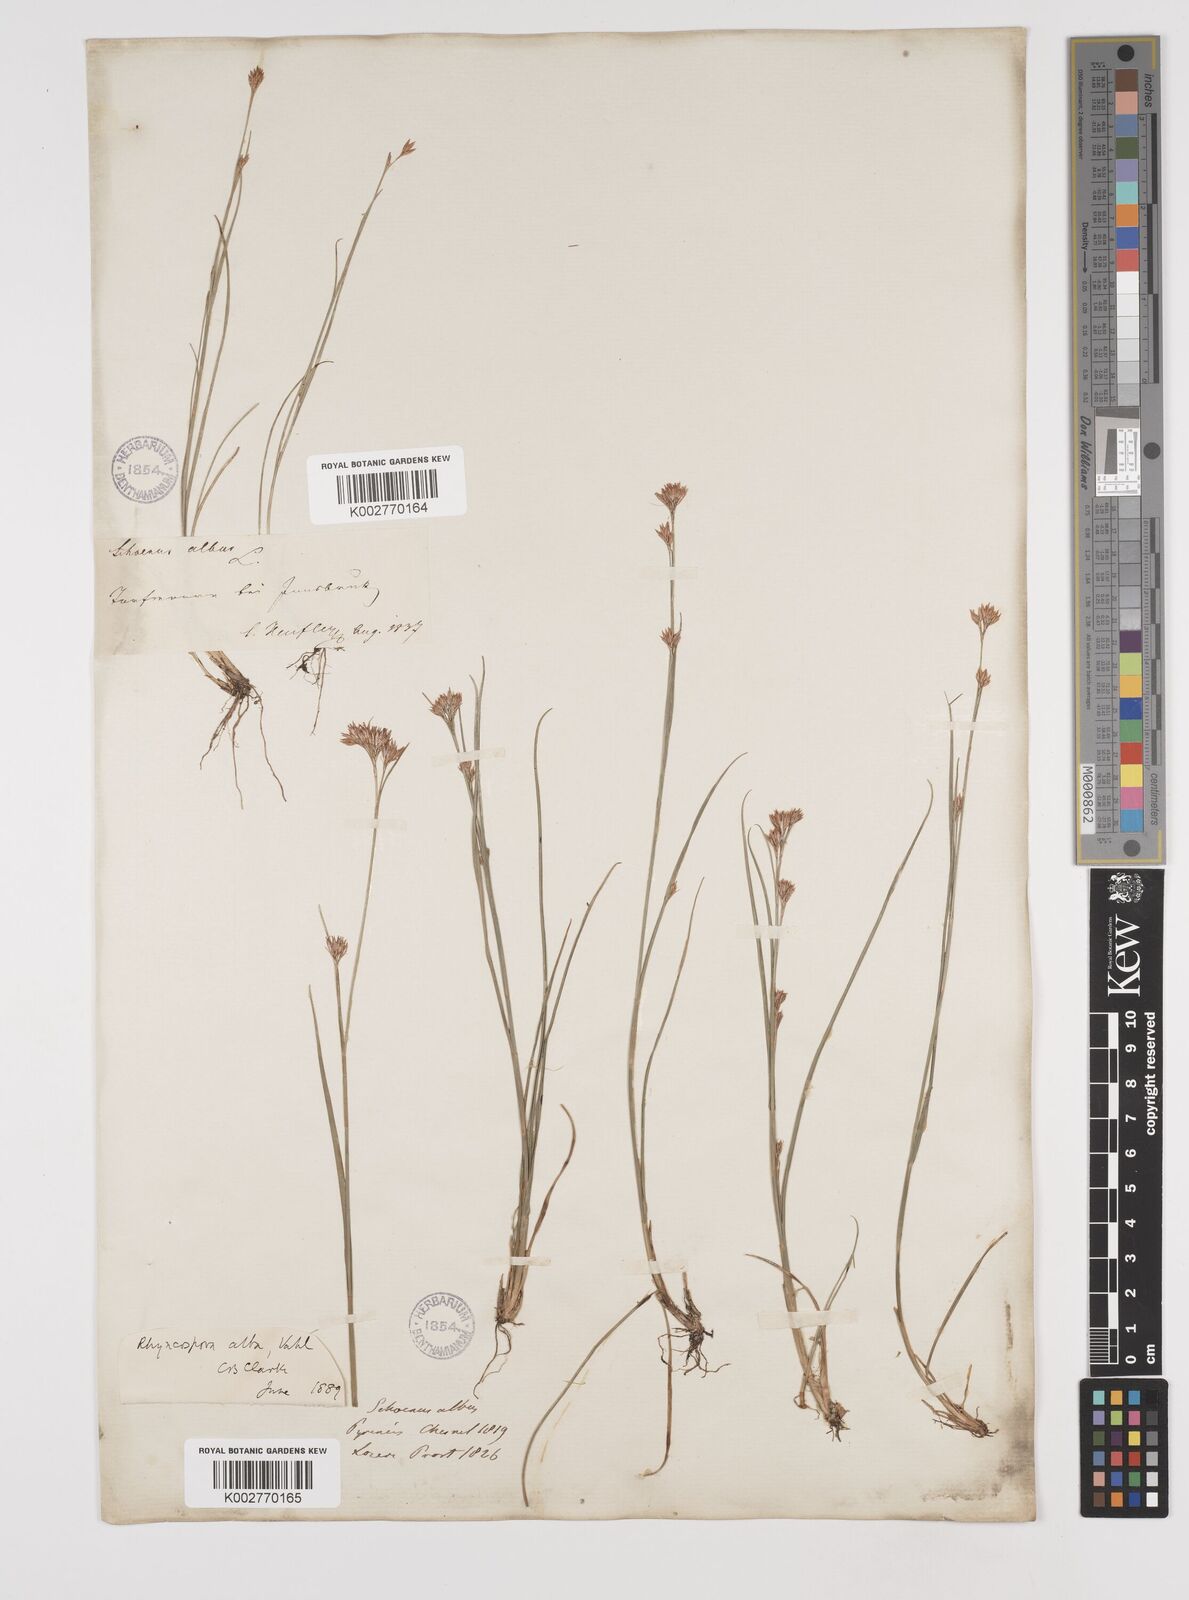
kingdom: Plantae
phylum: Tracheophyta
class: Liliopsida
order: Poales
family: Cyperaceae
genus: Rhynchospora
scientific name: Rhynchospora
